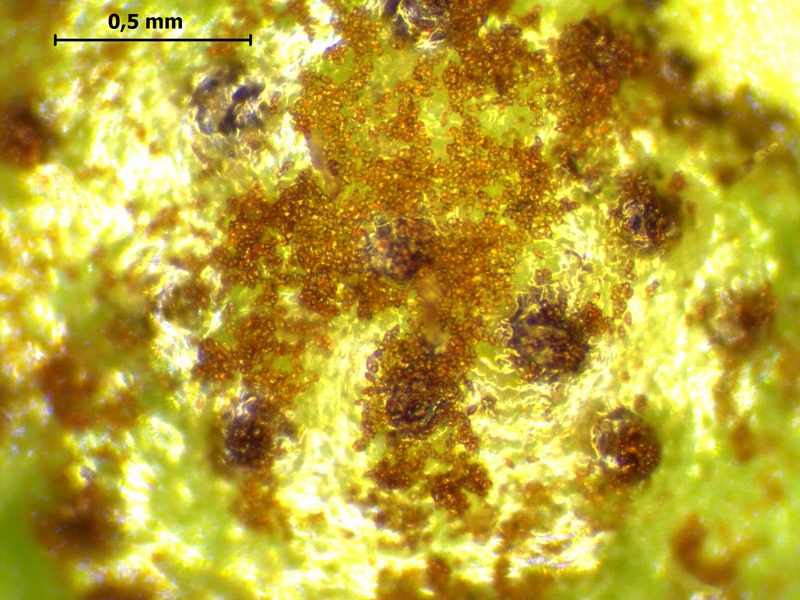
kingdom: Fungi
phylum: Basidiomycota
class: Pucciniomycetes
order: Pucciniales
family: Pucciniaceae
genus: Puccinia
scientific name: Puccinia asarina
